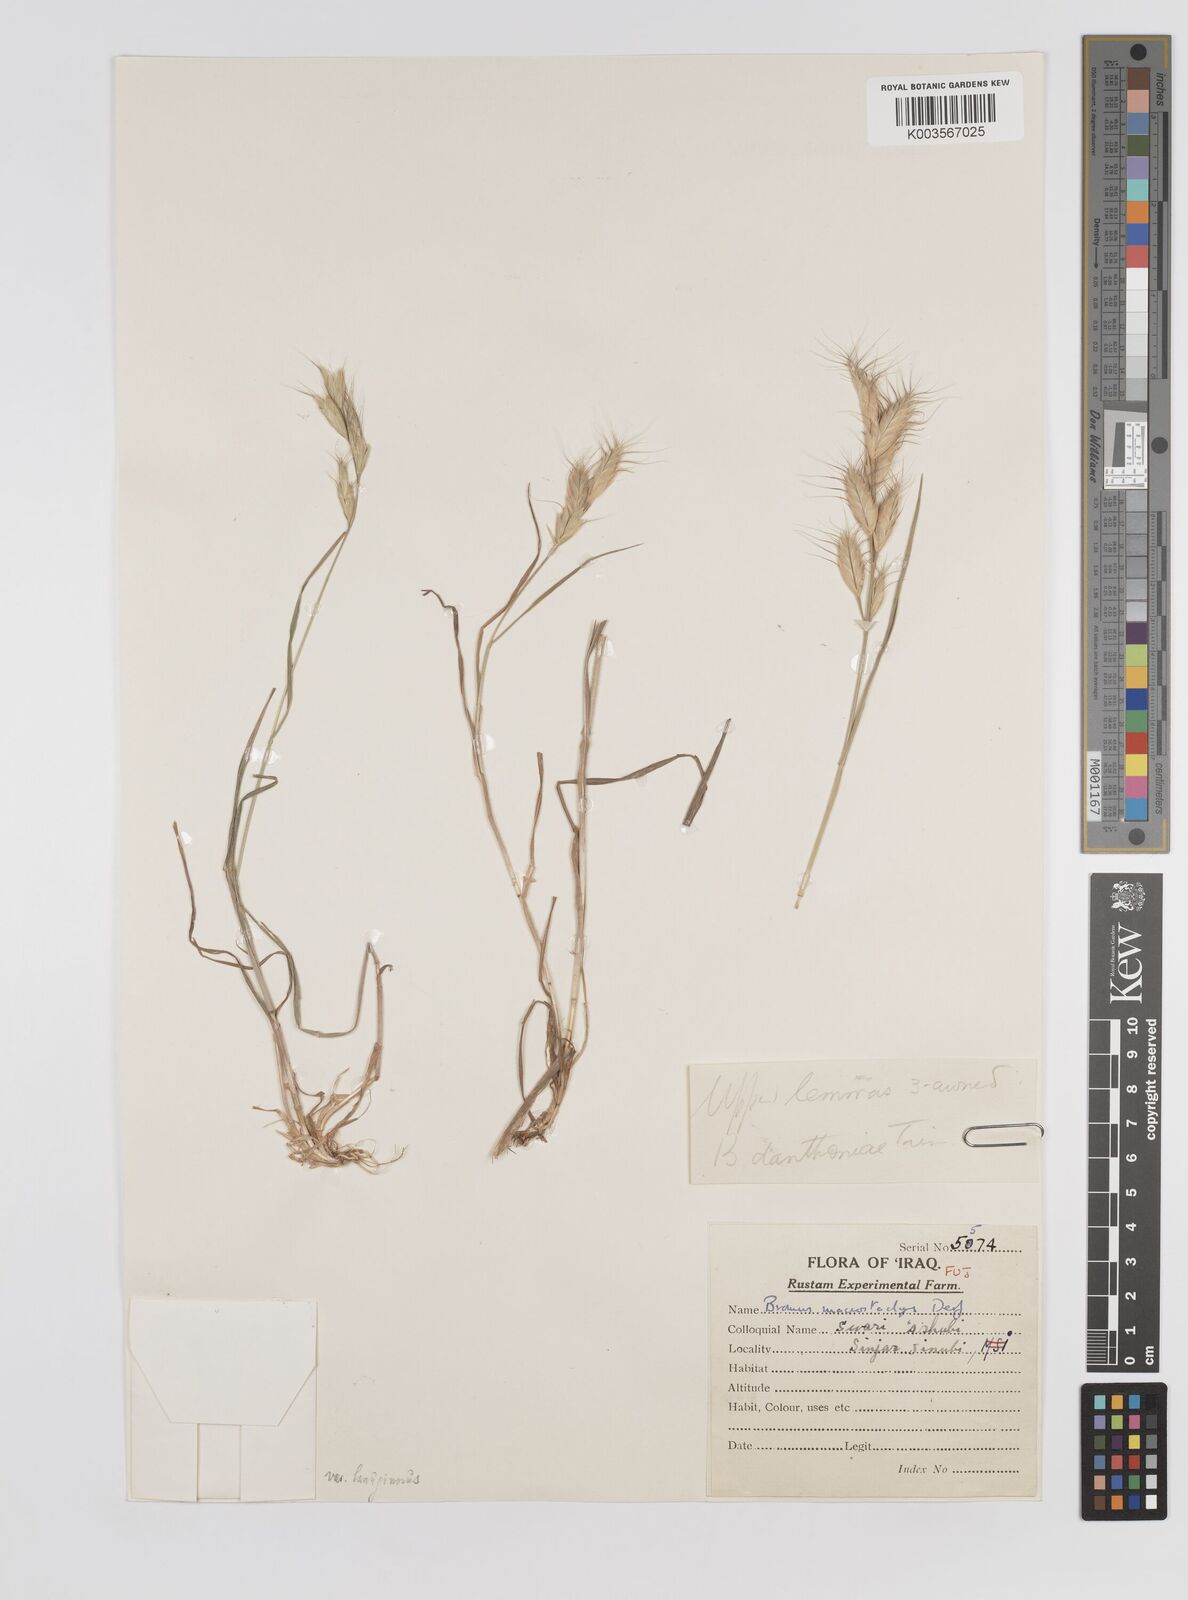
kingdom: Plantae
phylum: Tracheophyta
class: Liliopsida
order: Poales
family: Poaceae
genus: Bromus
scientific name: Bromus danthoniae
